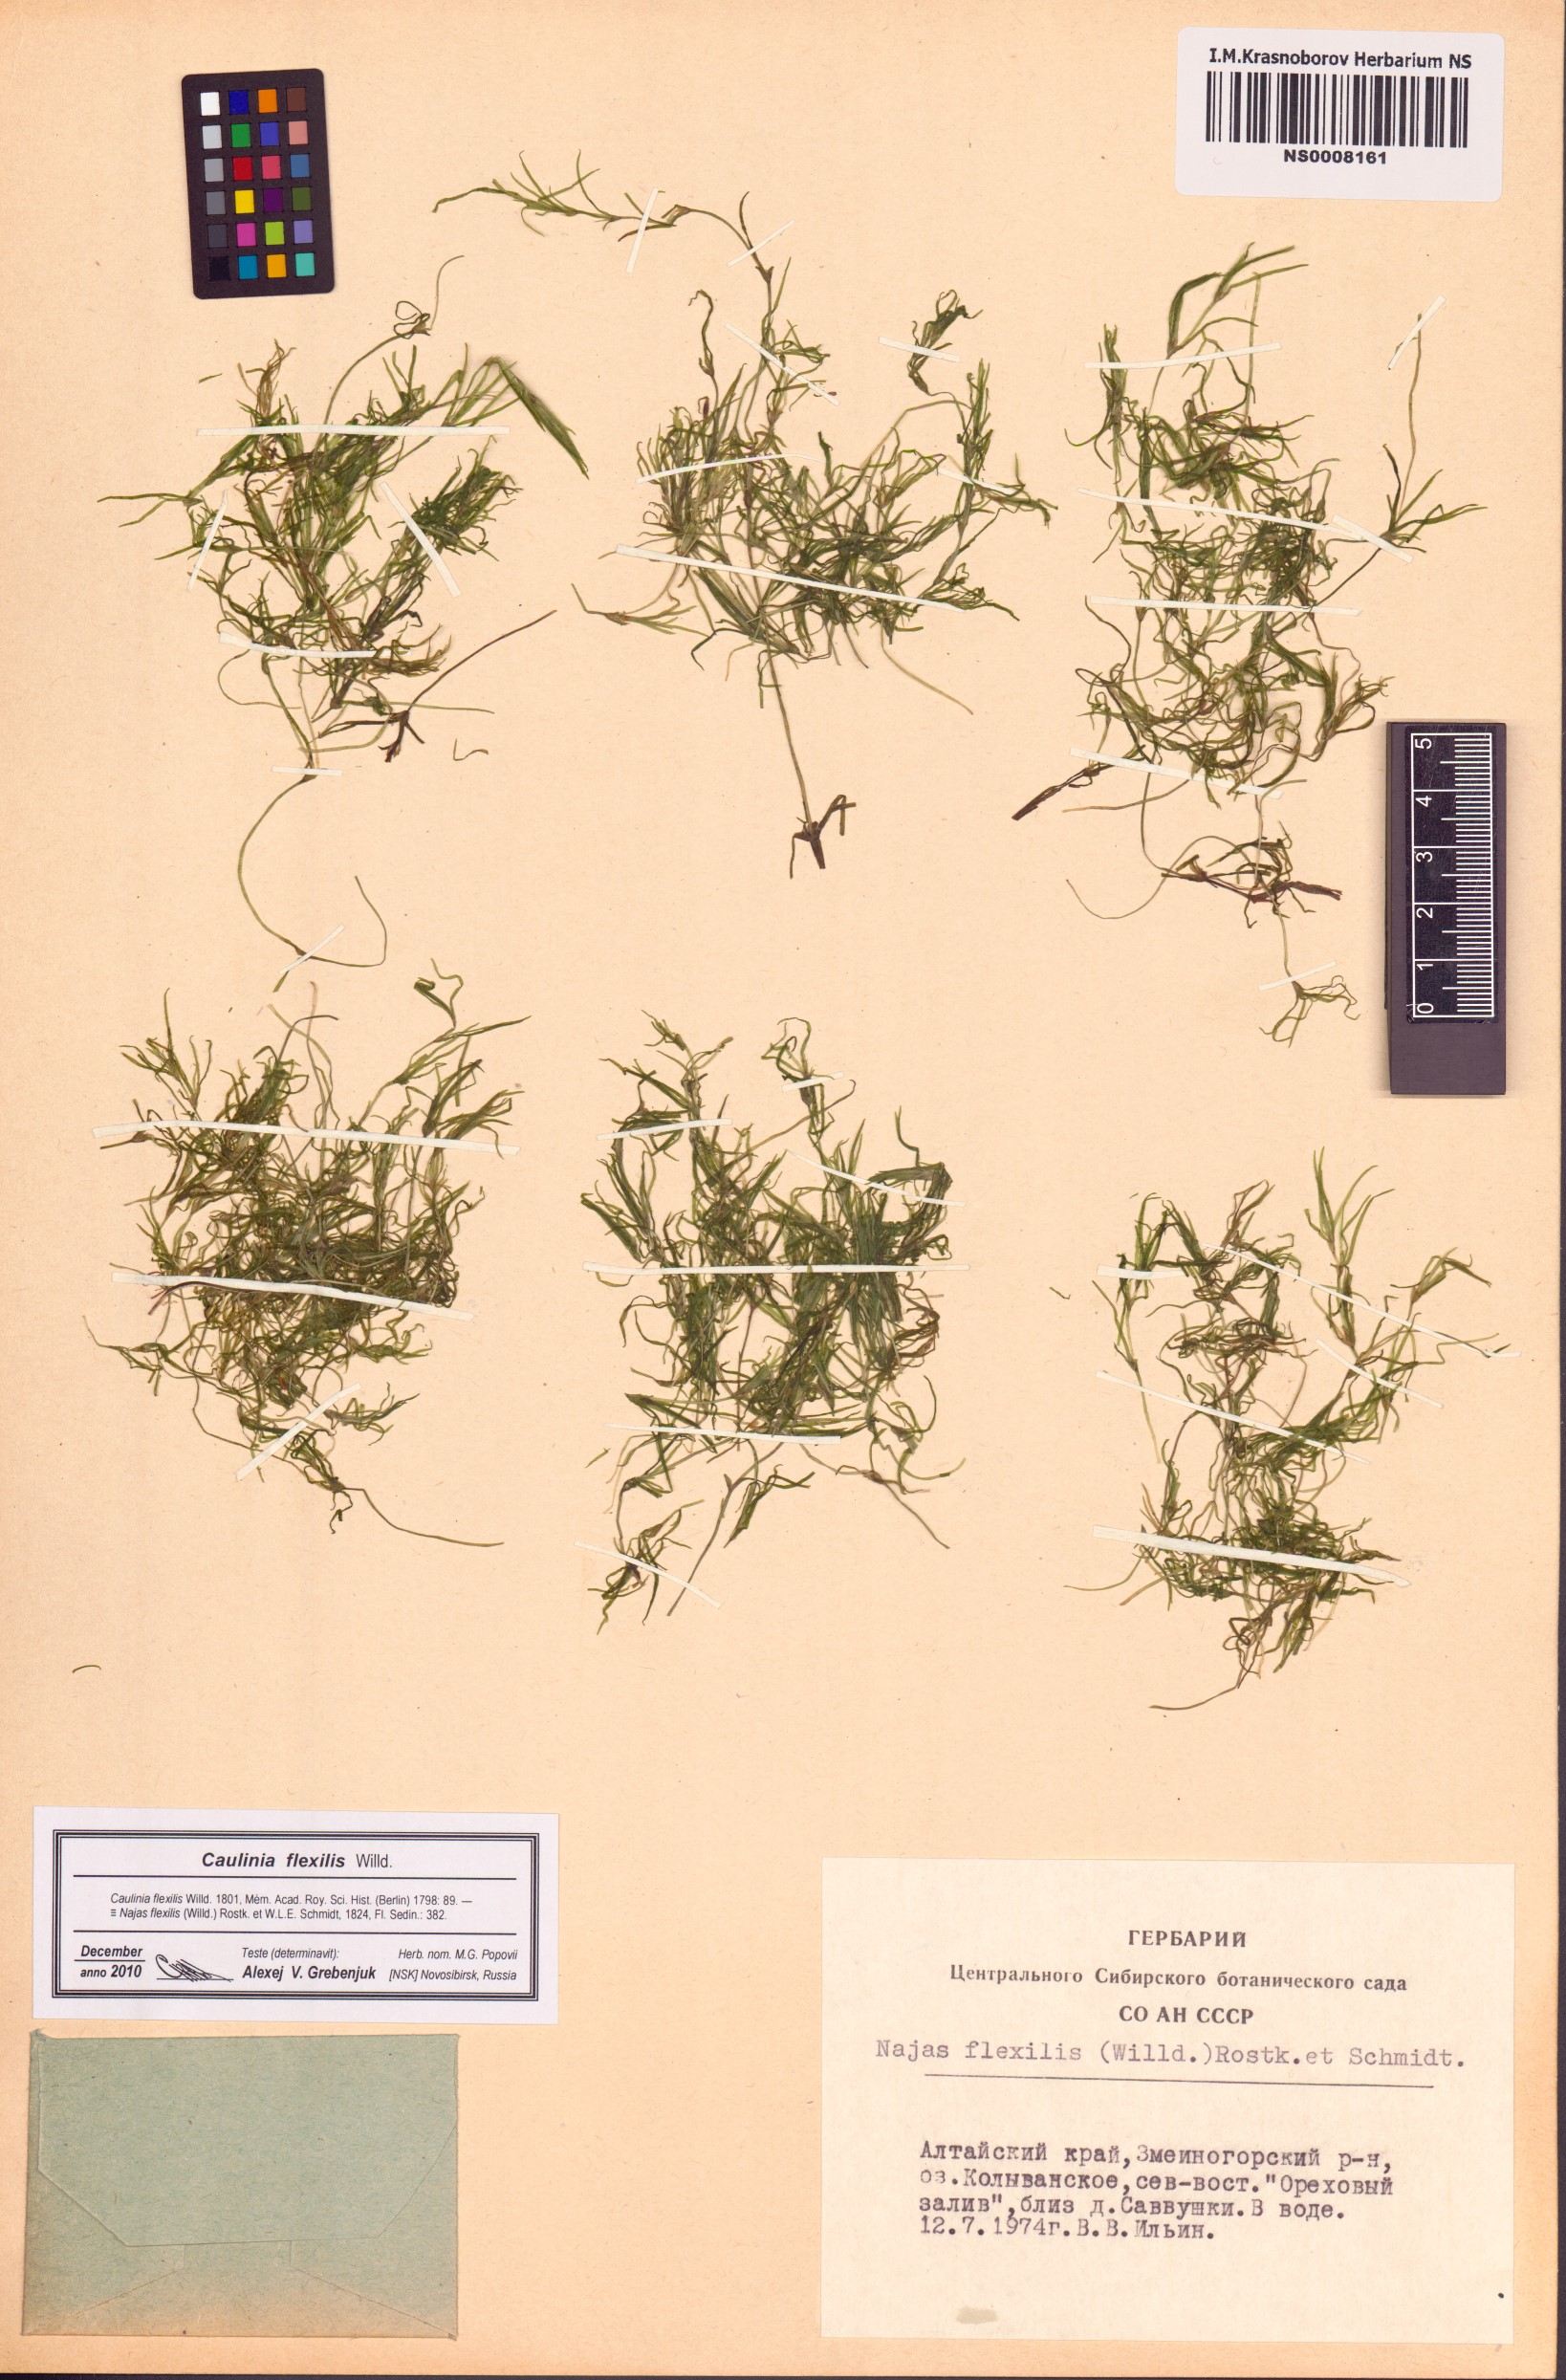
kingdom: Plantae
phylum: Tracheophyta
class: Liliopsida
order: Alismatales
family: Hydrocharitaceae
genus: Najas
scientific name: Najas flexilis
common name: Slender naiad
